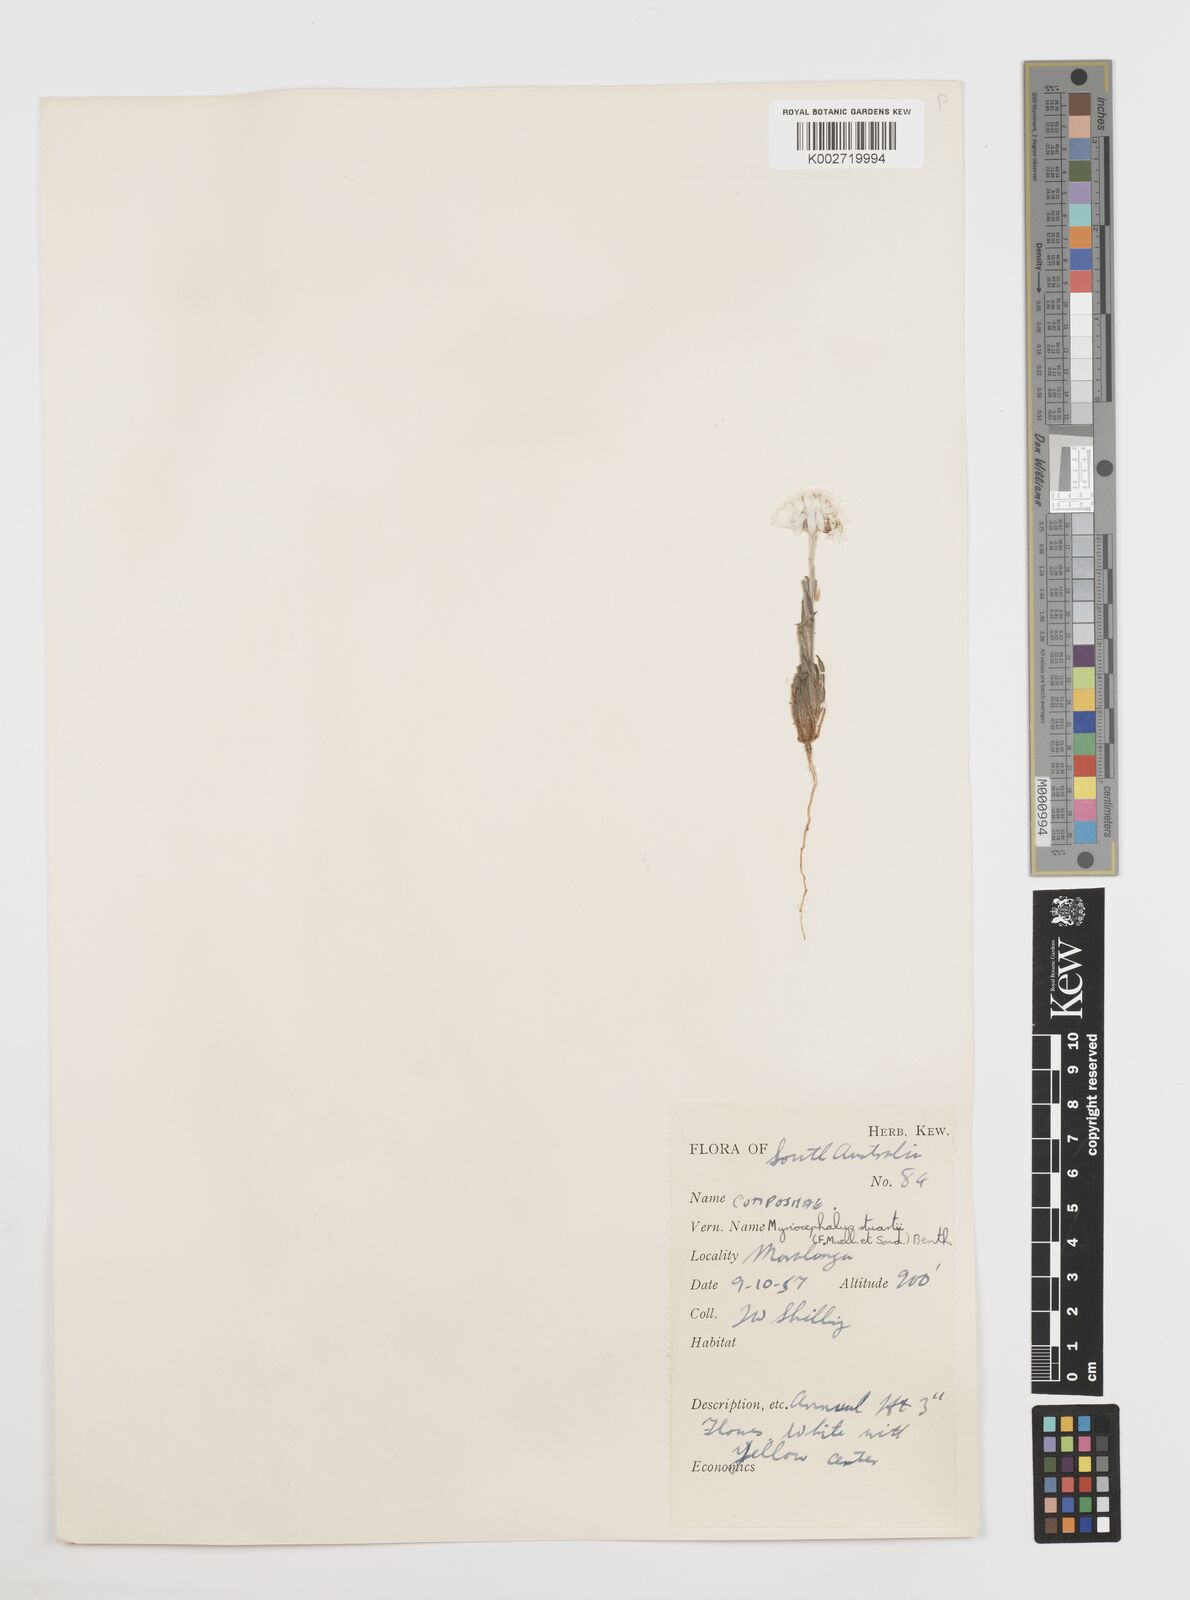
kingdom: Plantae
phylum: Tracheophyta
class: Magnoliopsida
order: Asterales
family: Asteraceae
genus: Polycalymma
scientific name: Polycalymma stuartii
